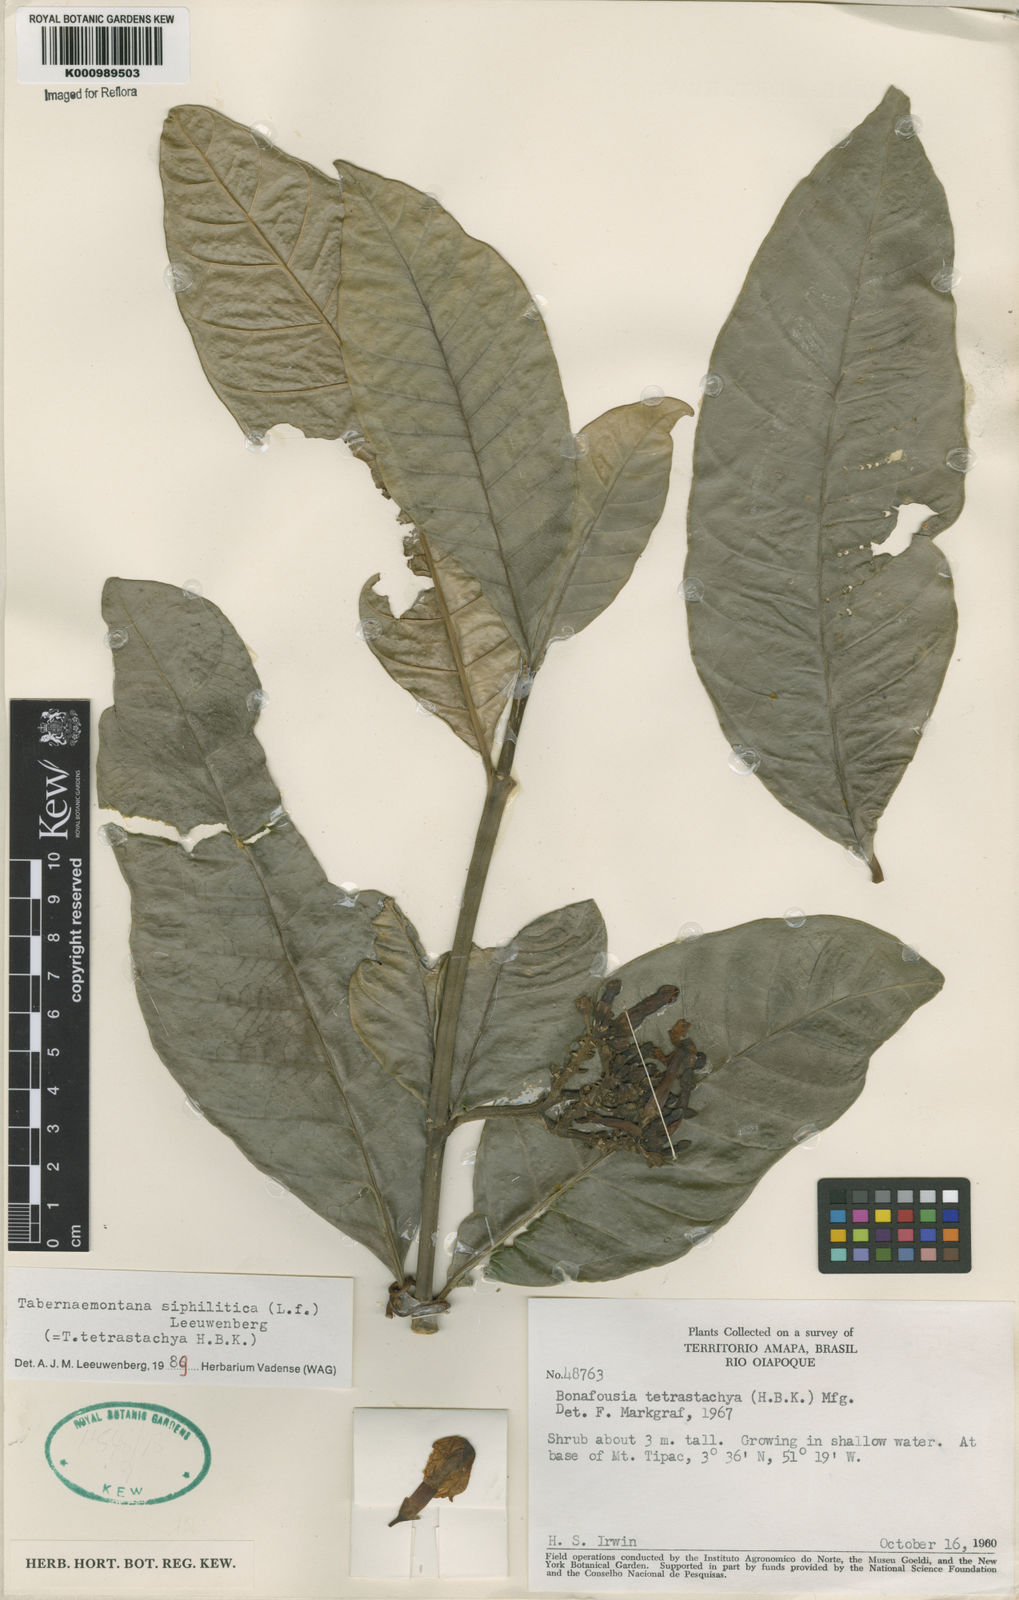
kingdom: Plantae
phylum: Tracheophyta
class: Magnoliopsida
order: Gentianales
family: Apocynaceae
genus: Tabernaemontana
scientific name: Tabernaemontana siphilitica
